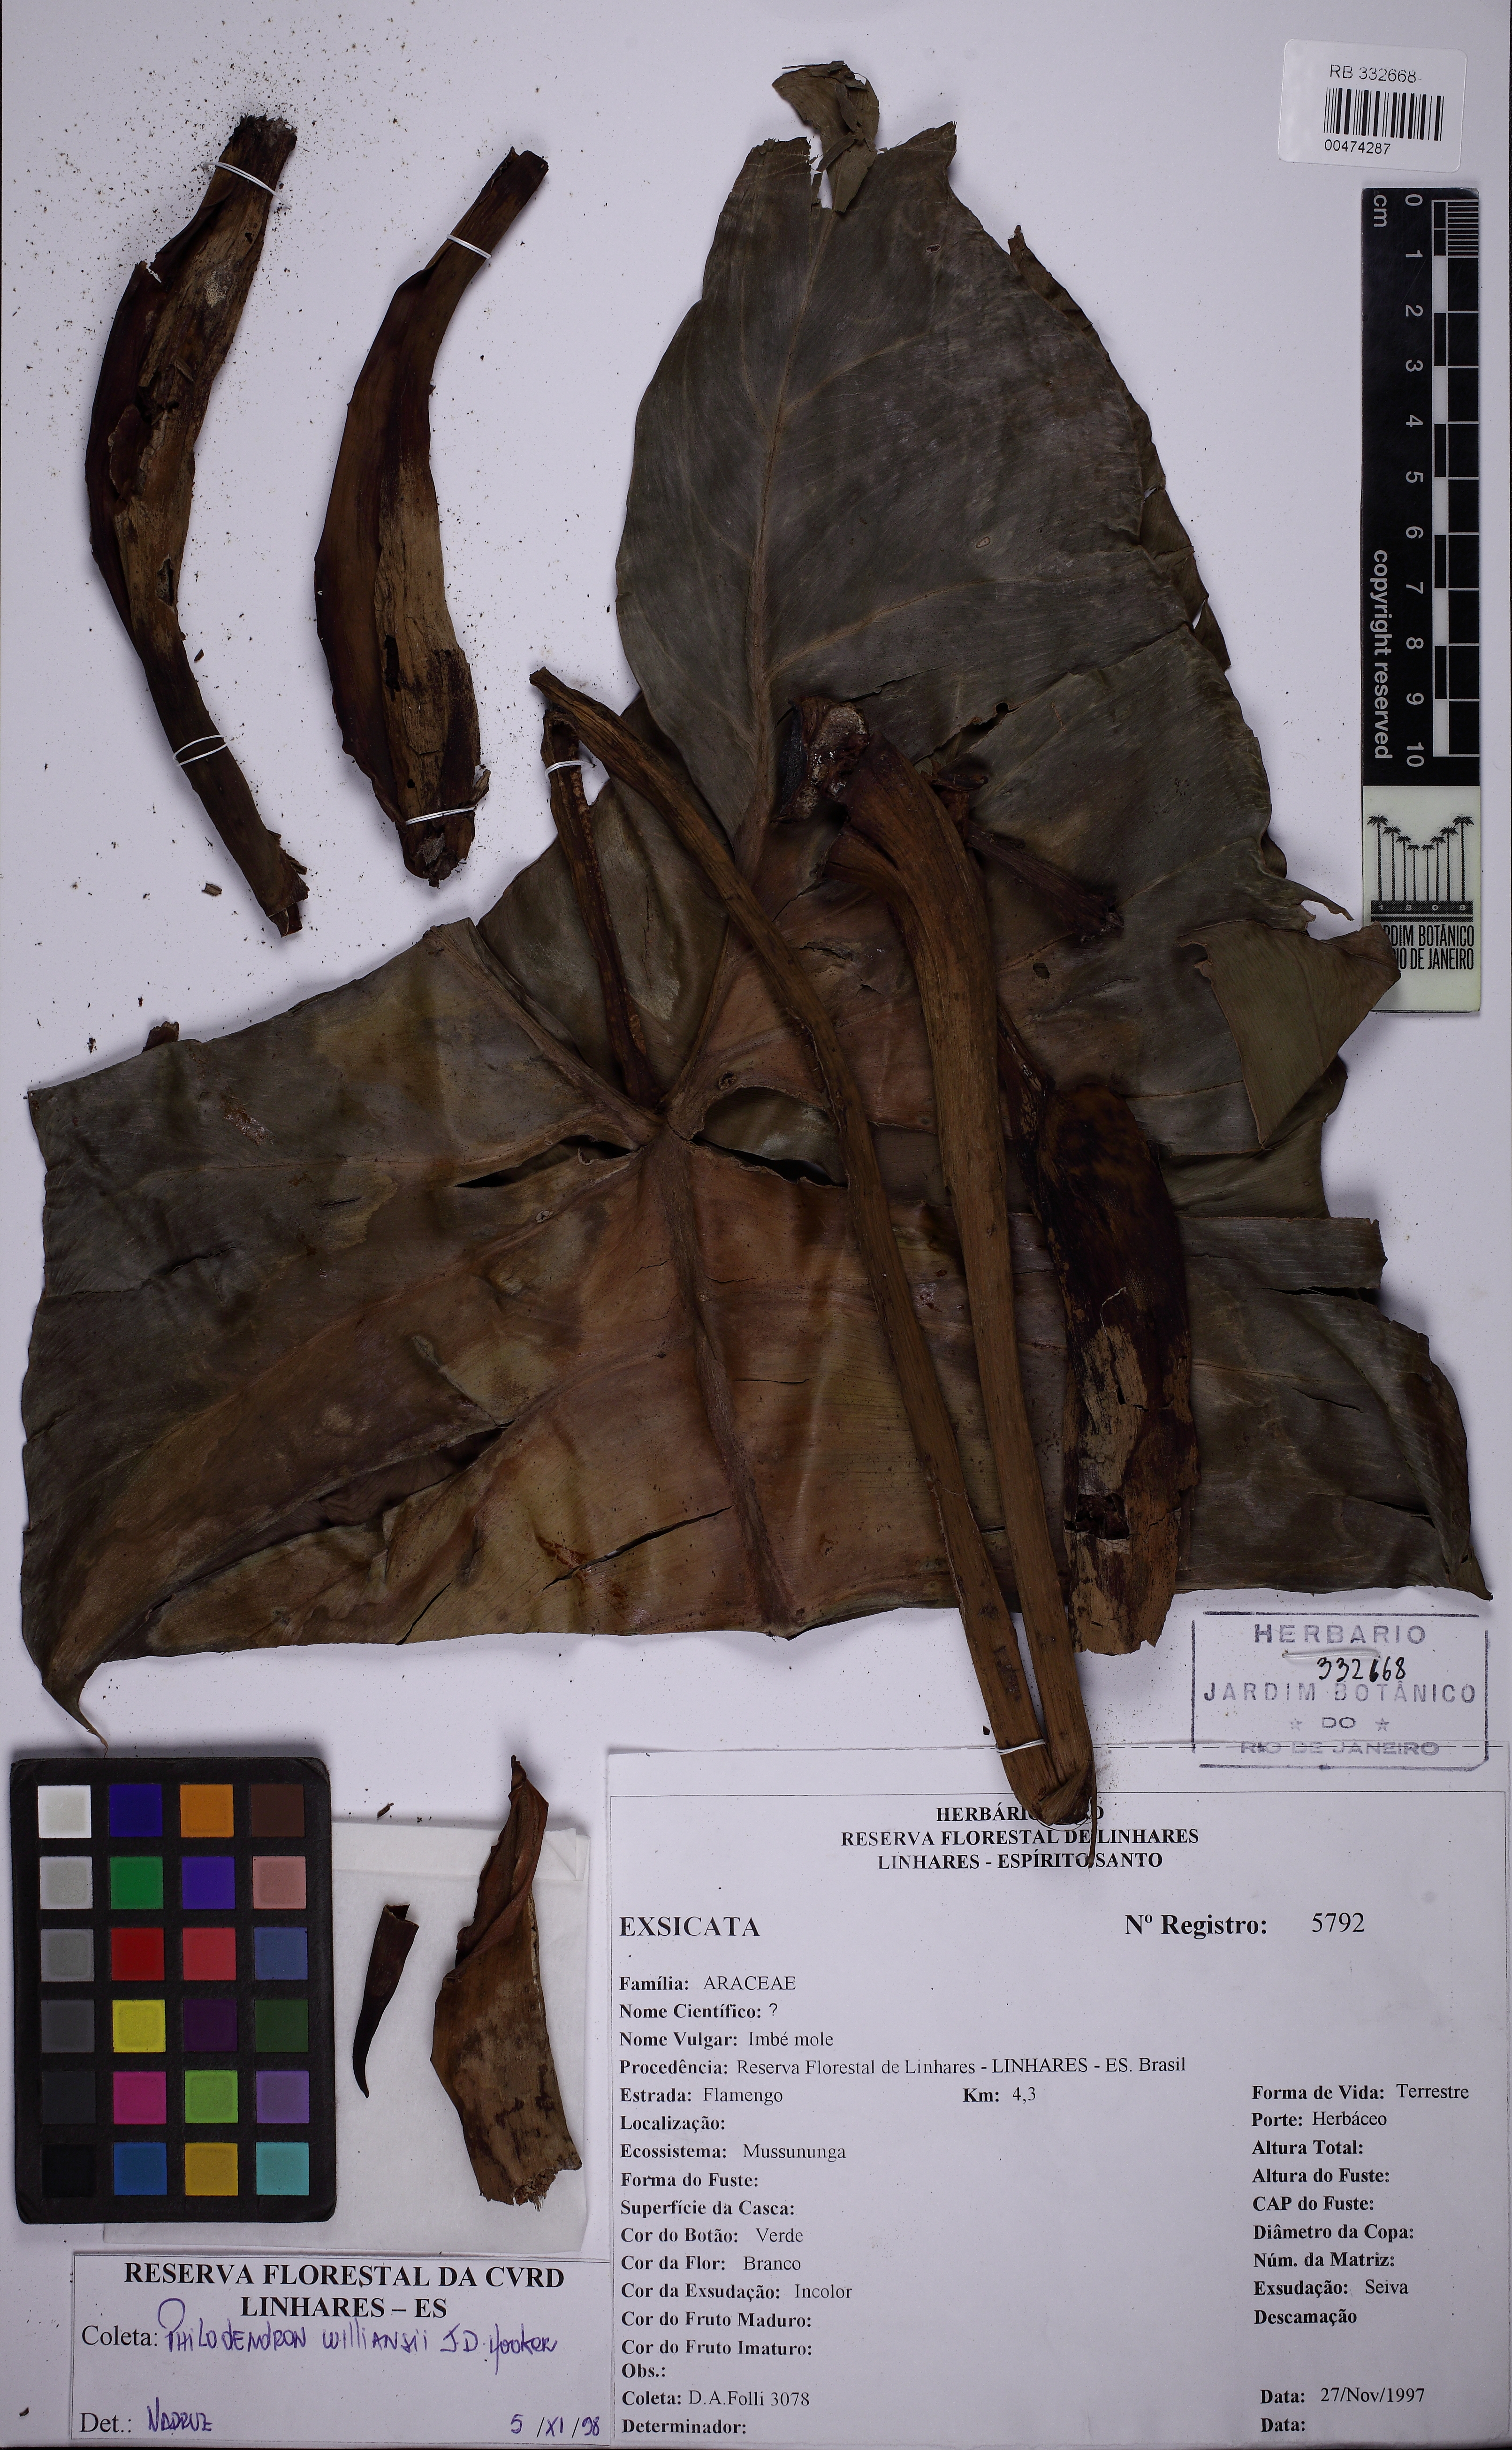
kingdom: Plantae
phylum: Tracheophyta
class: Liliopsida
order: Alismatales
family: Araceae
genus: Philodendron
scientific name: Philodendron bernardopazii
